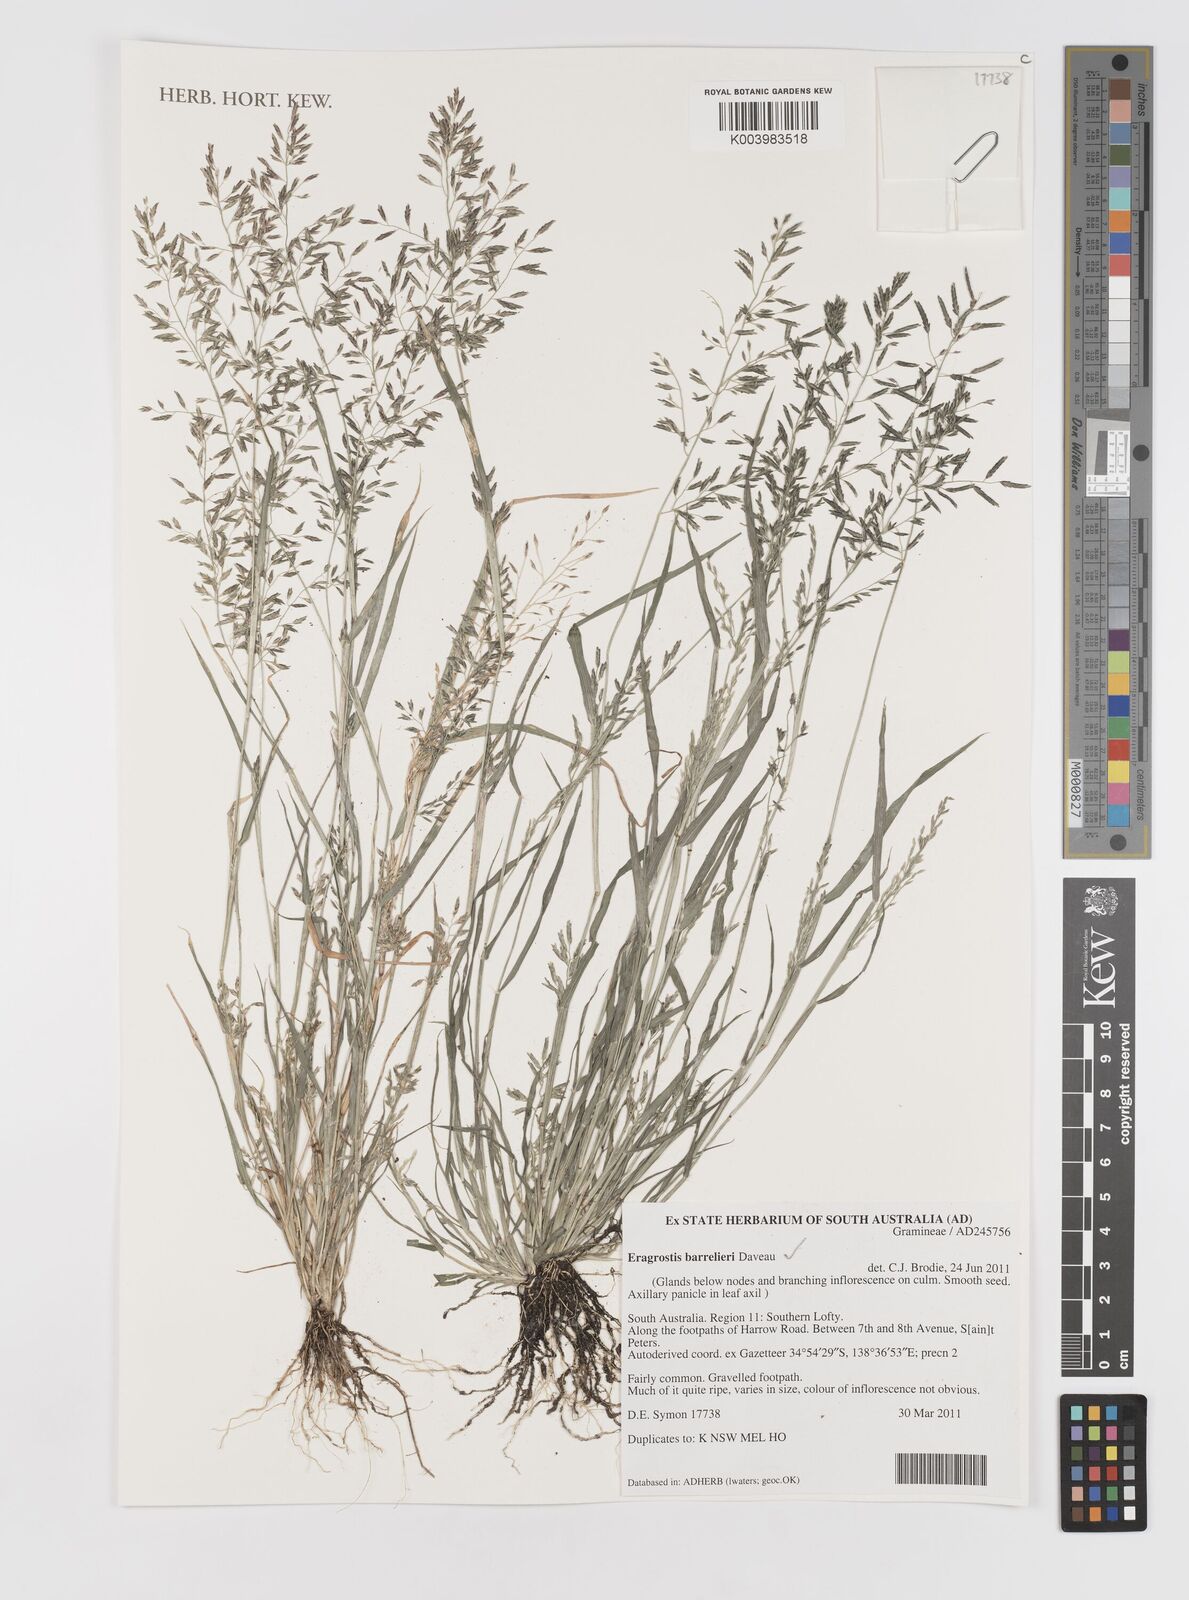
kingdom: Plantae
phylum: Tracheophyta
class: Liliopsida
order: Poales
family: Poaceae
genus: Eragrostis
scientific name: Eragrostis barrelieri
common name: Mediterranean lovegrass
